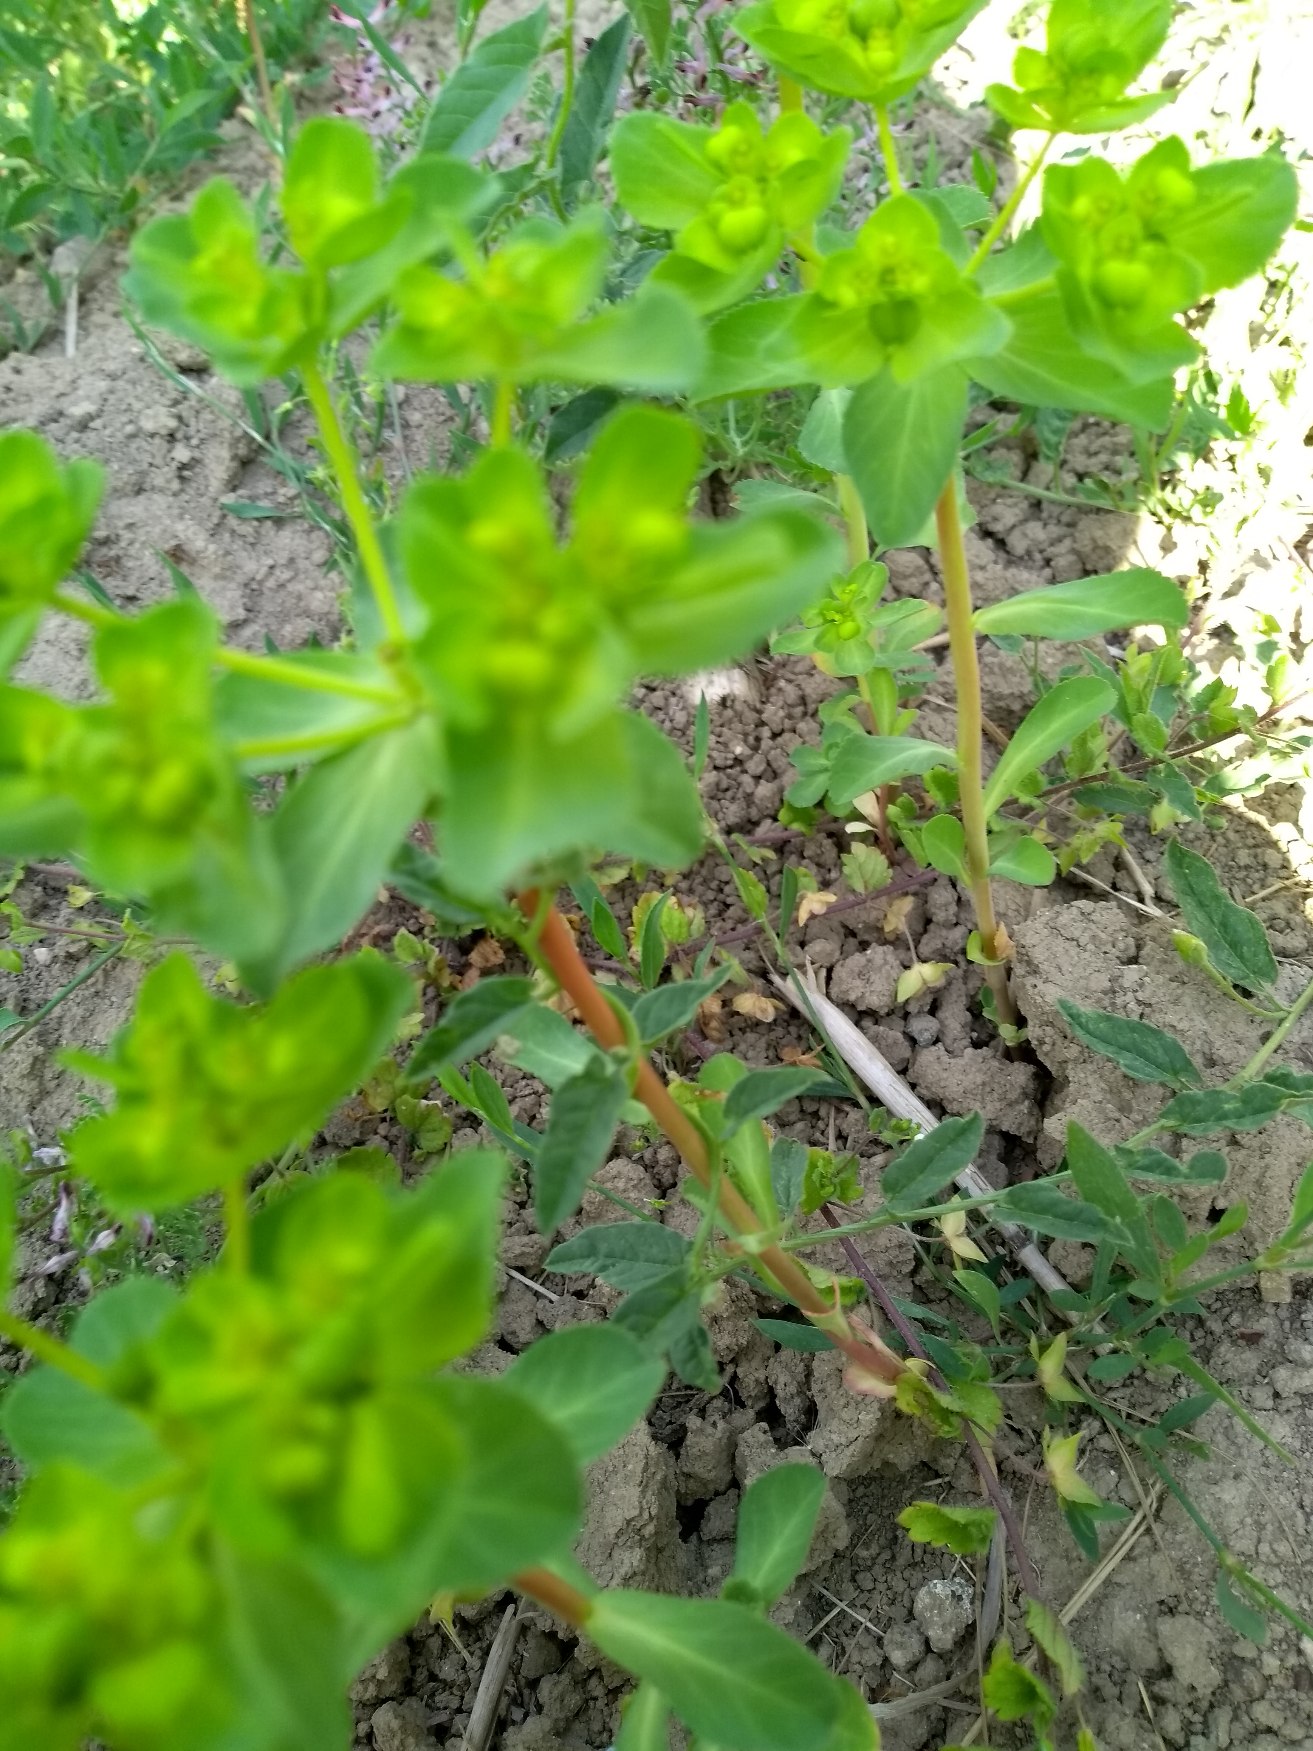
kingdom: Plantae
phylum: Tracheophyta
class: Magnoliopsida
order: Malpighiales
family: Euphorbiaceae
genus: Euphorbia
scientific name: Euphorbia helioscopia
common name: Skærm-vortemælk
